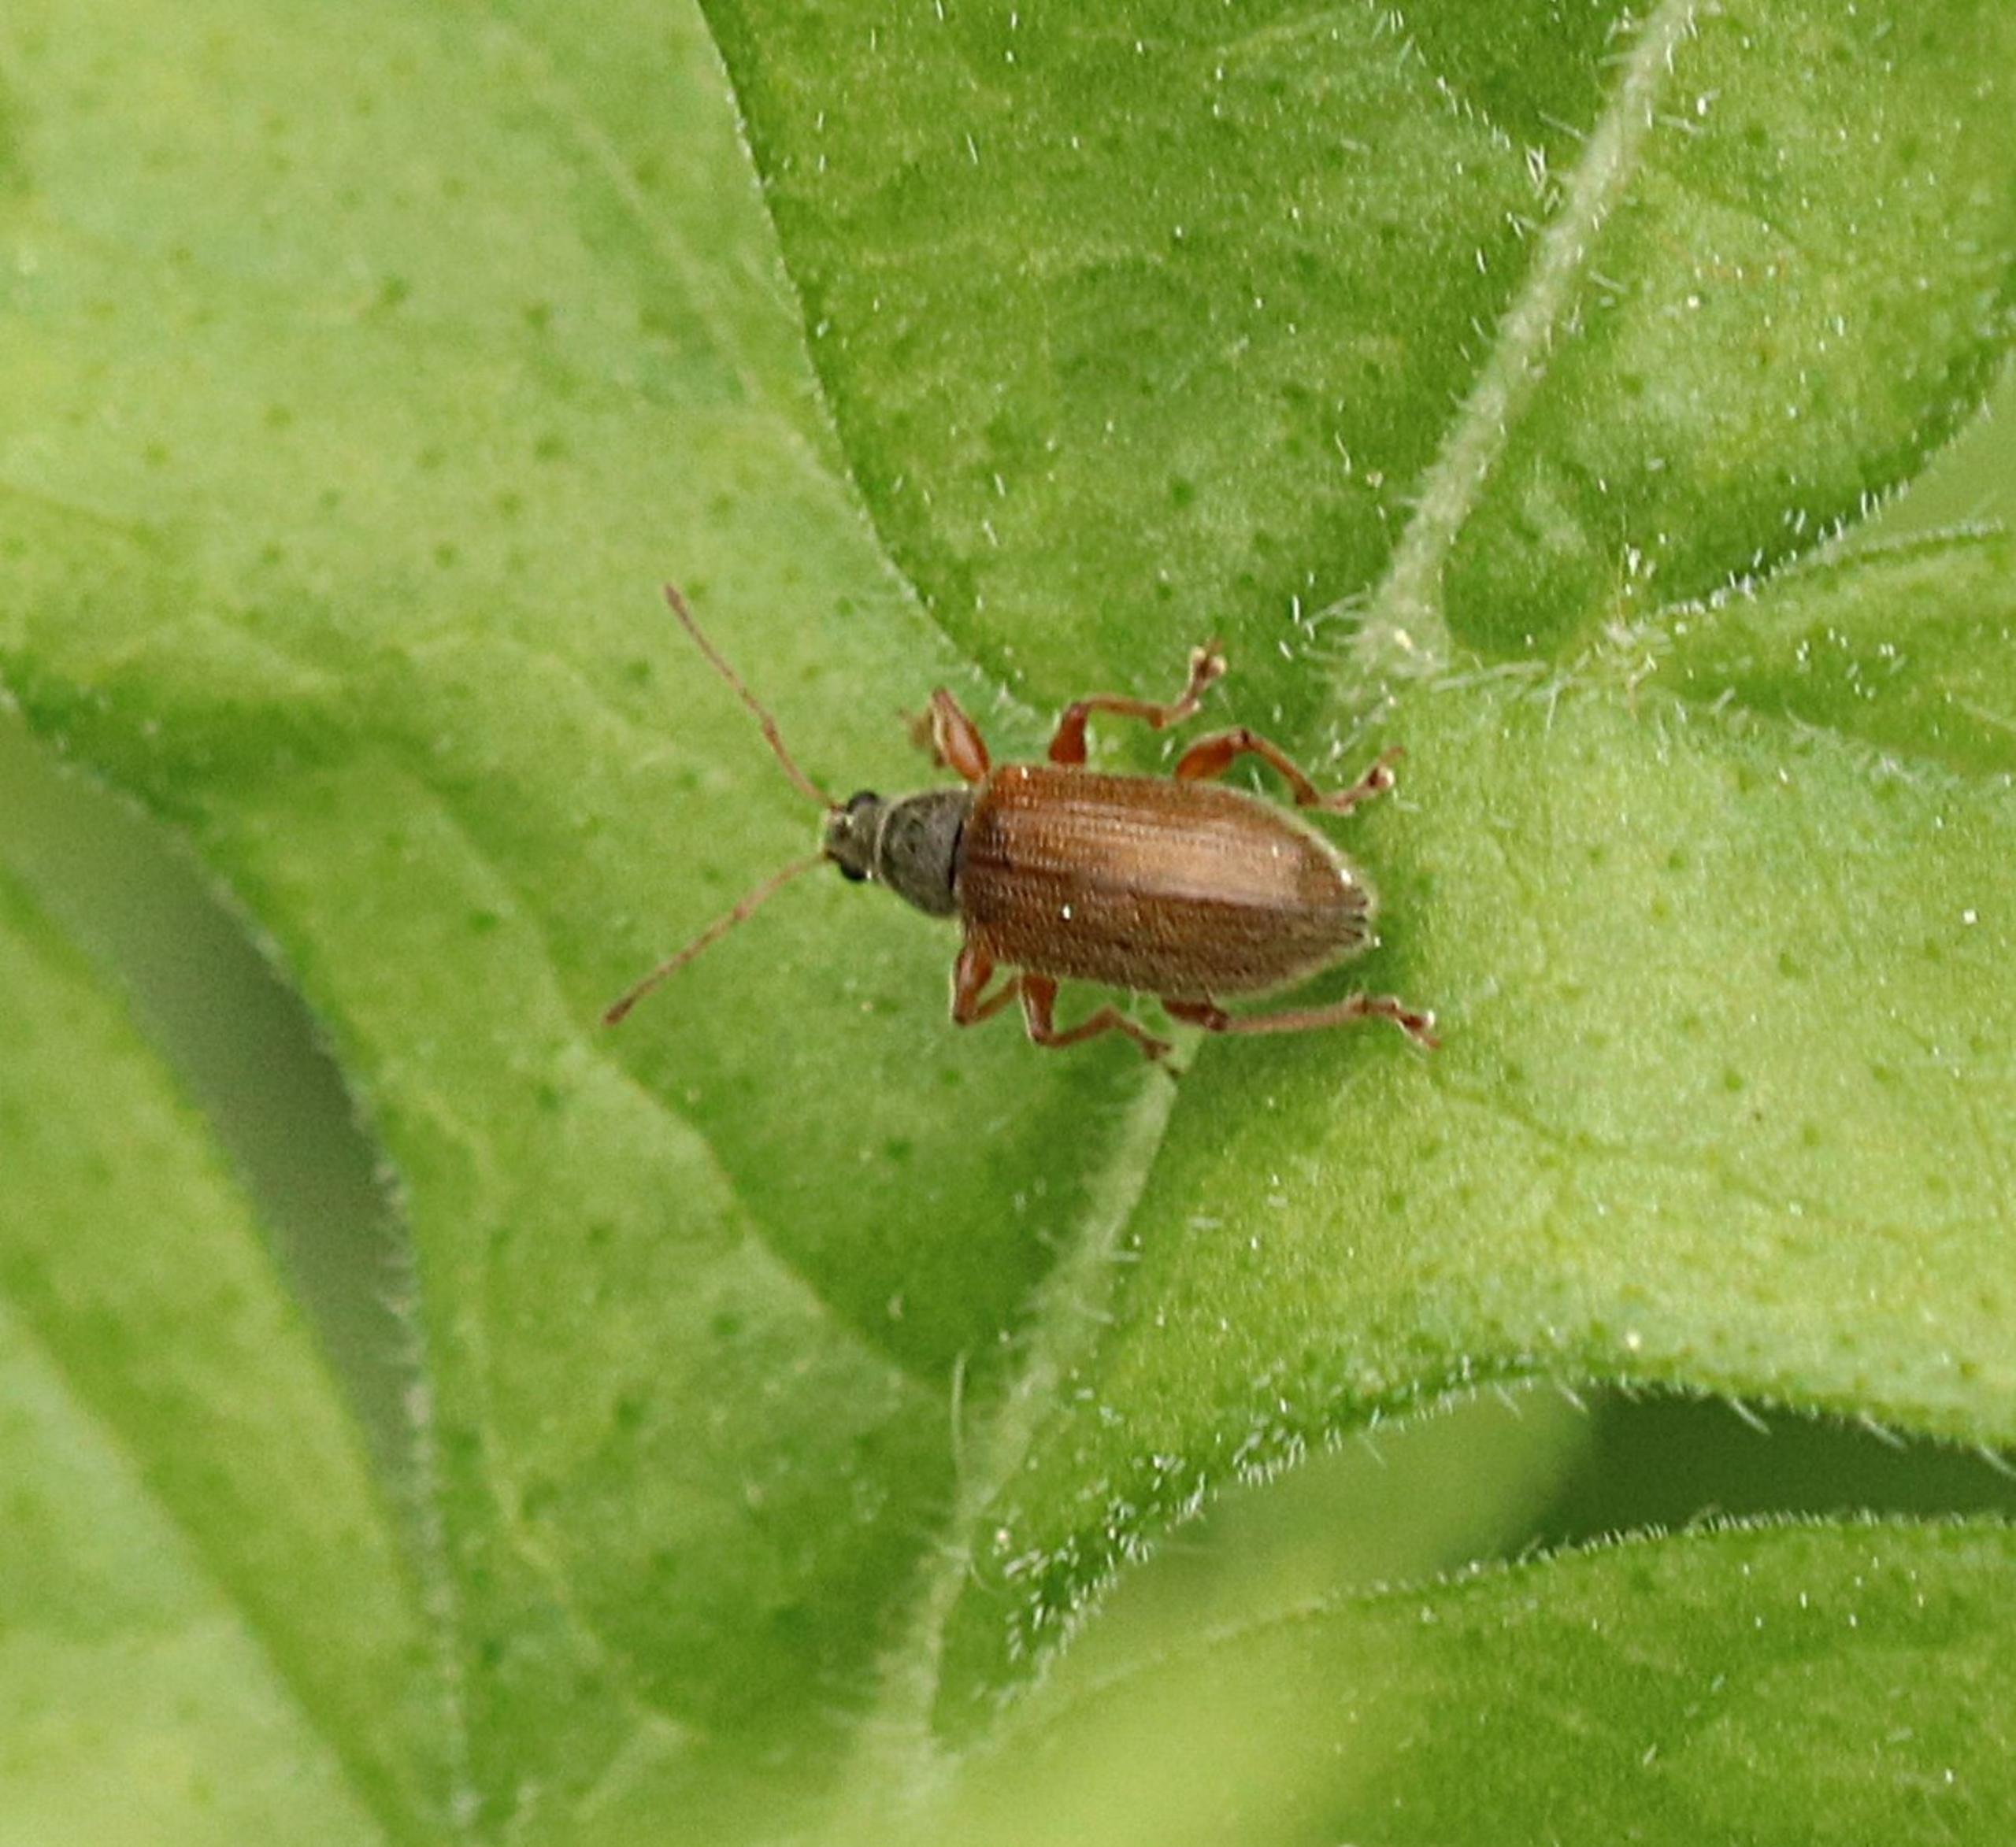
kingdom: Animalia
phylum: Arthropoda
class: Insecta
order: Coleoptera
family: Curculionidae
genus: Phyllobius
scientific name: Phyllobius oblongus
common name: Frugttræløvsnudebille
